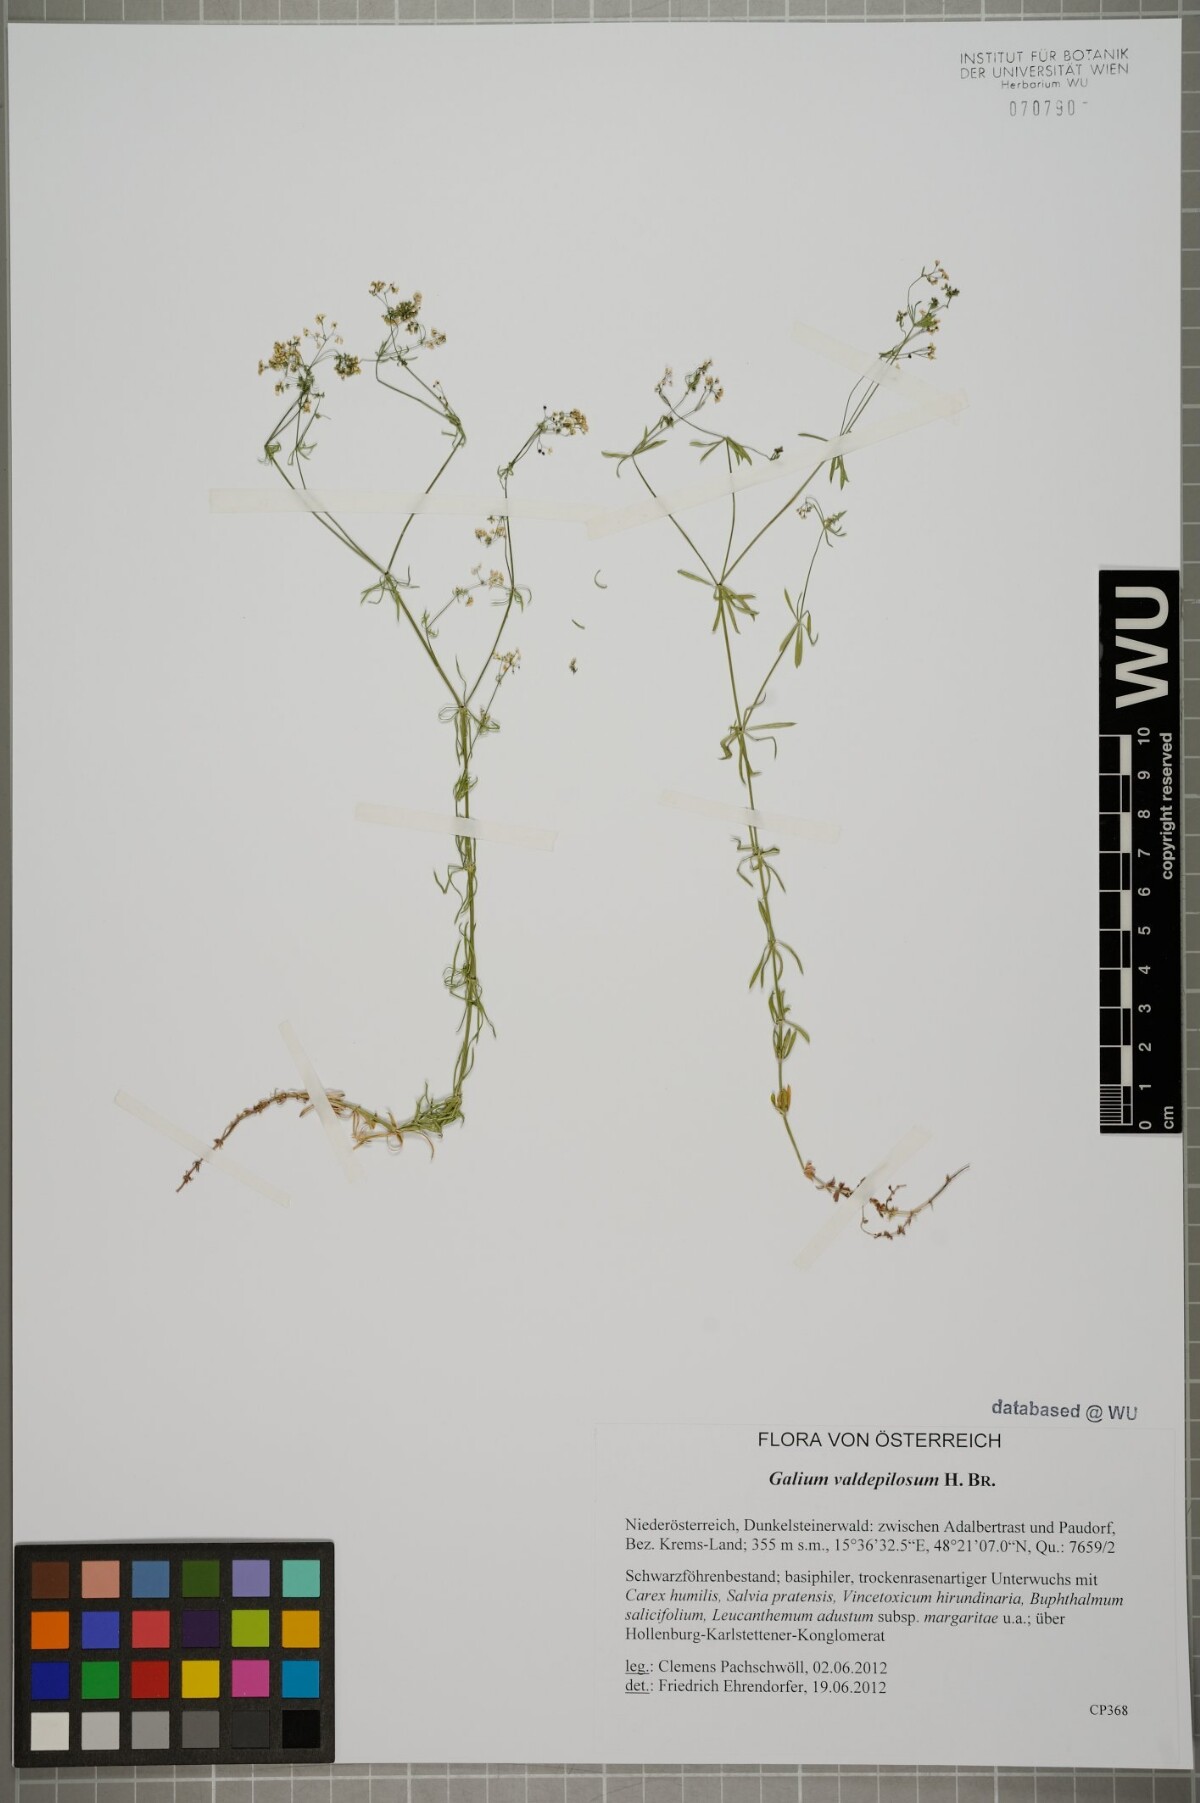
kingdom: Plantae
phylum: Tracheophyta
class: Magnoliopsida
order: Gentianales
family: Rubiaceae
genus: Galium
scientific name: Galium valdepilosum
